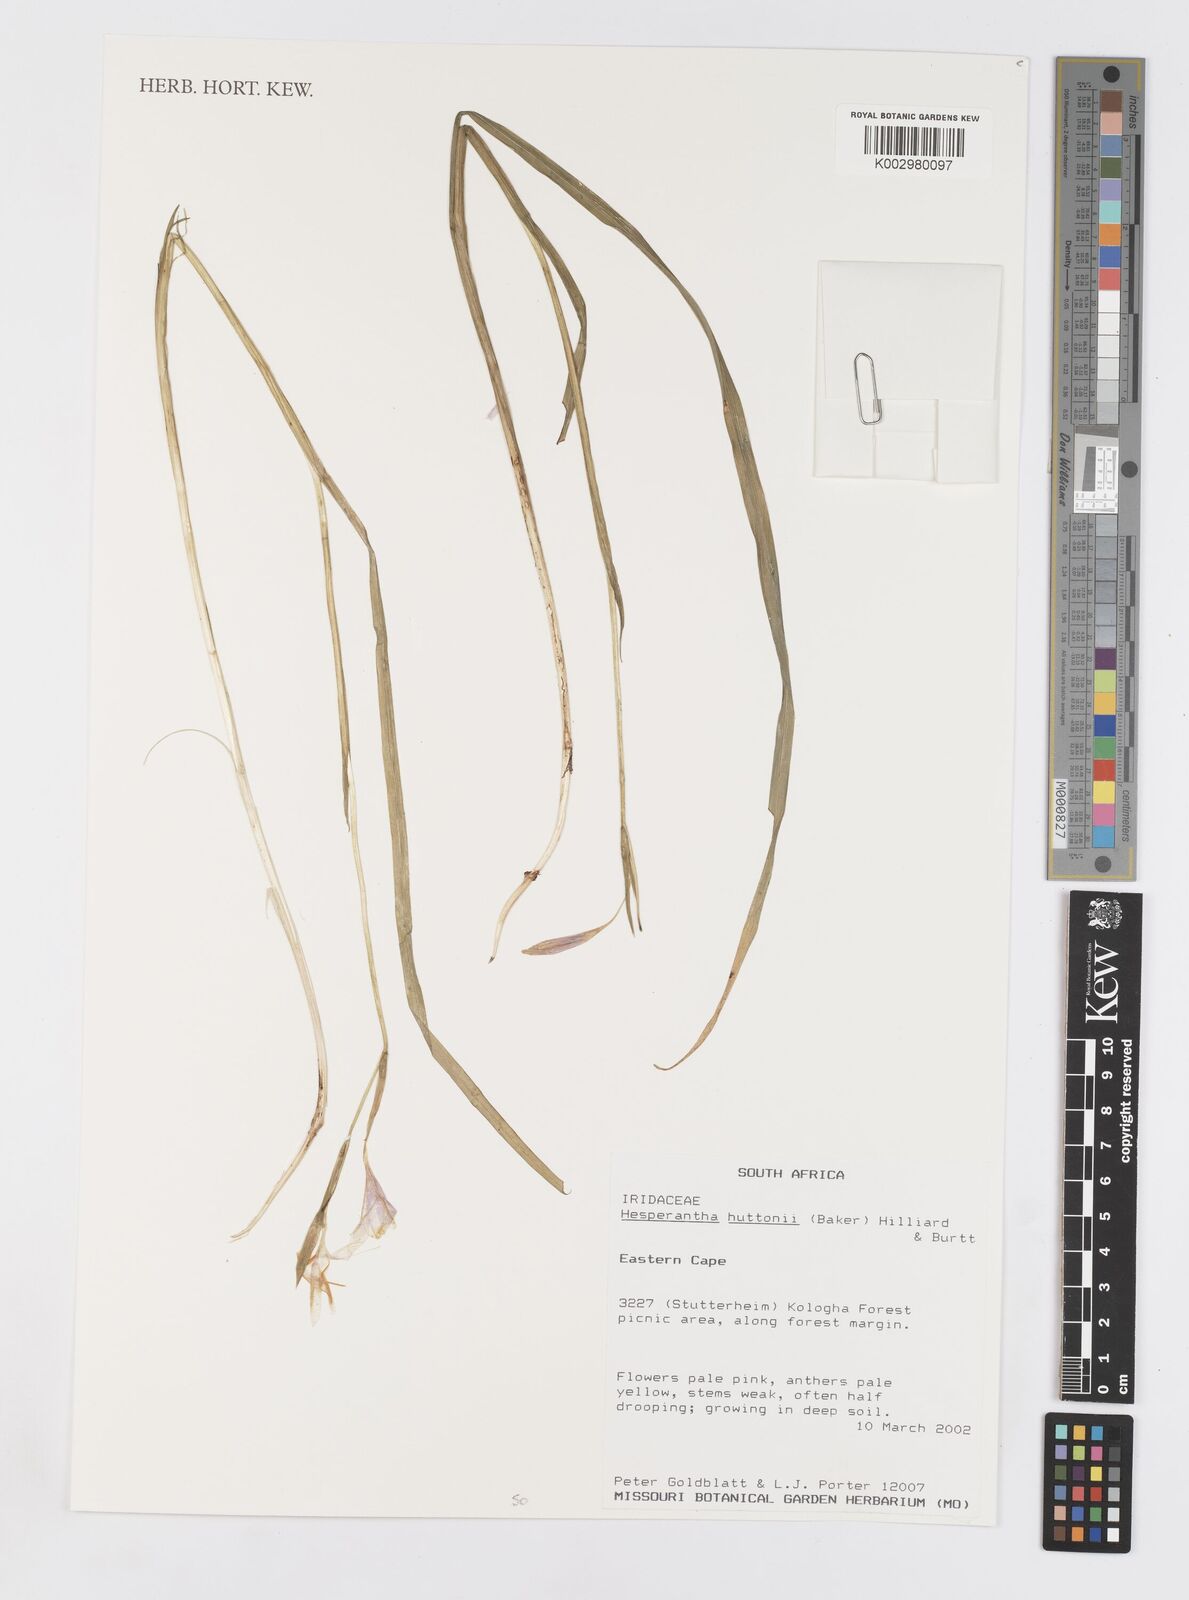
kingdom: Plantae
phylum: Tracheophyta
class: Liliopsida
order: Asparagales
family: Iridaceae
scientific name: Iridaceae
